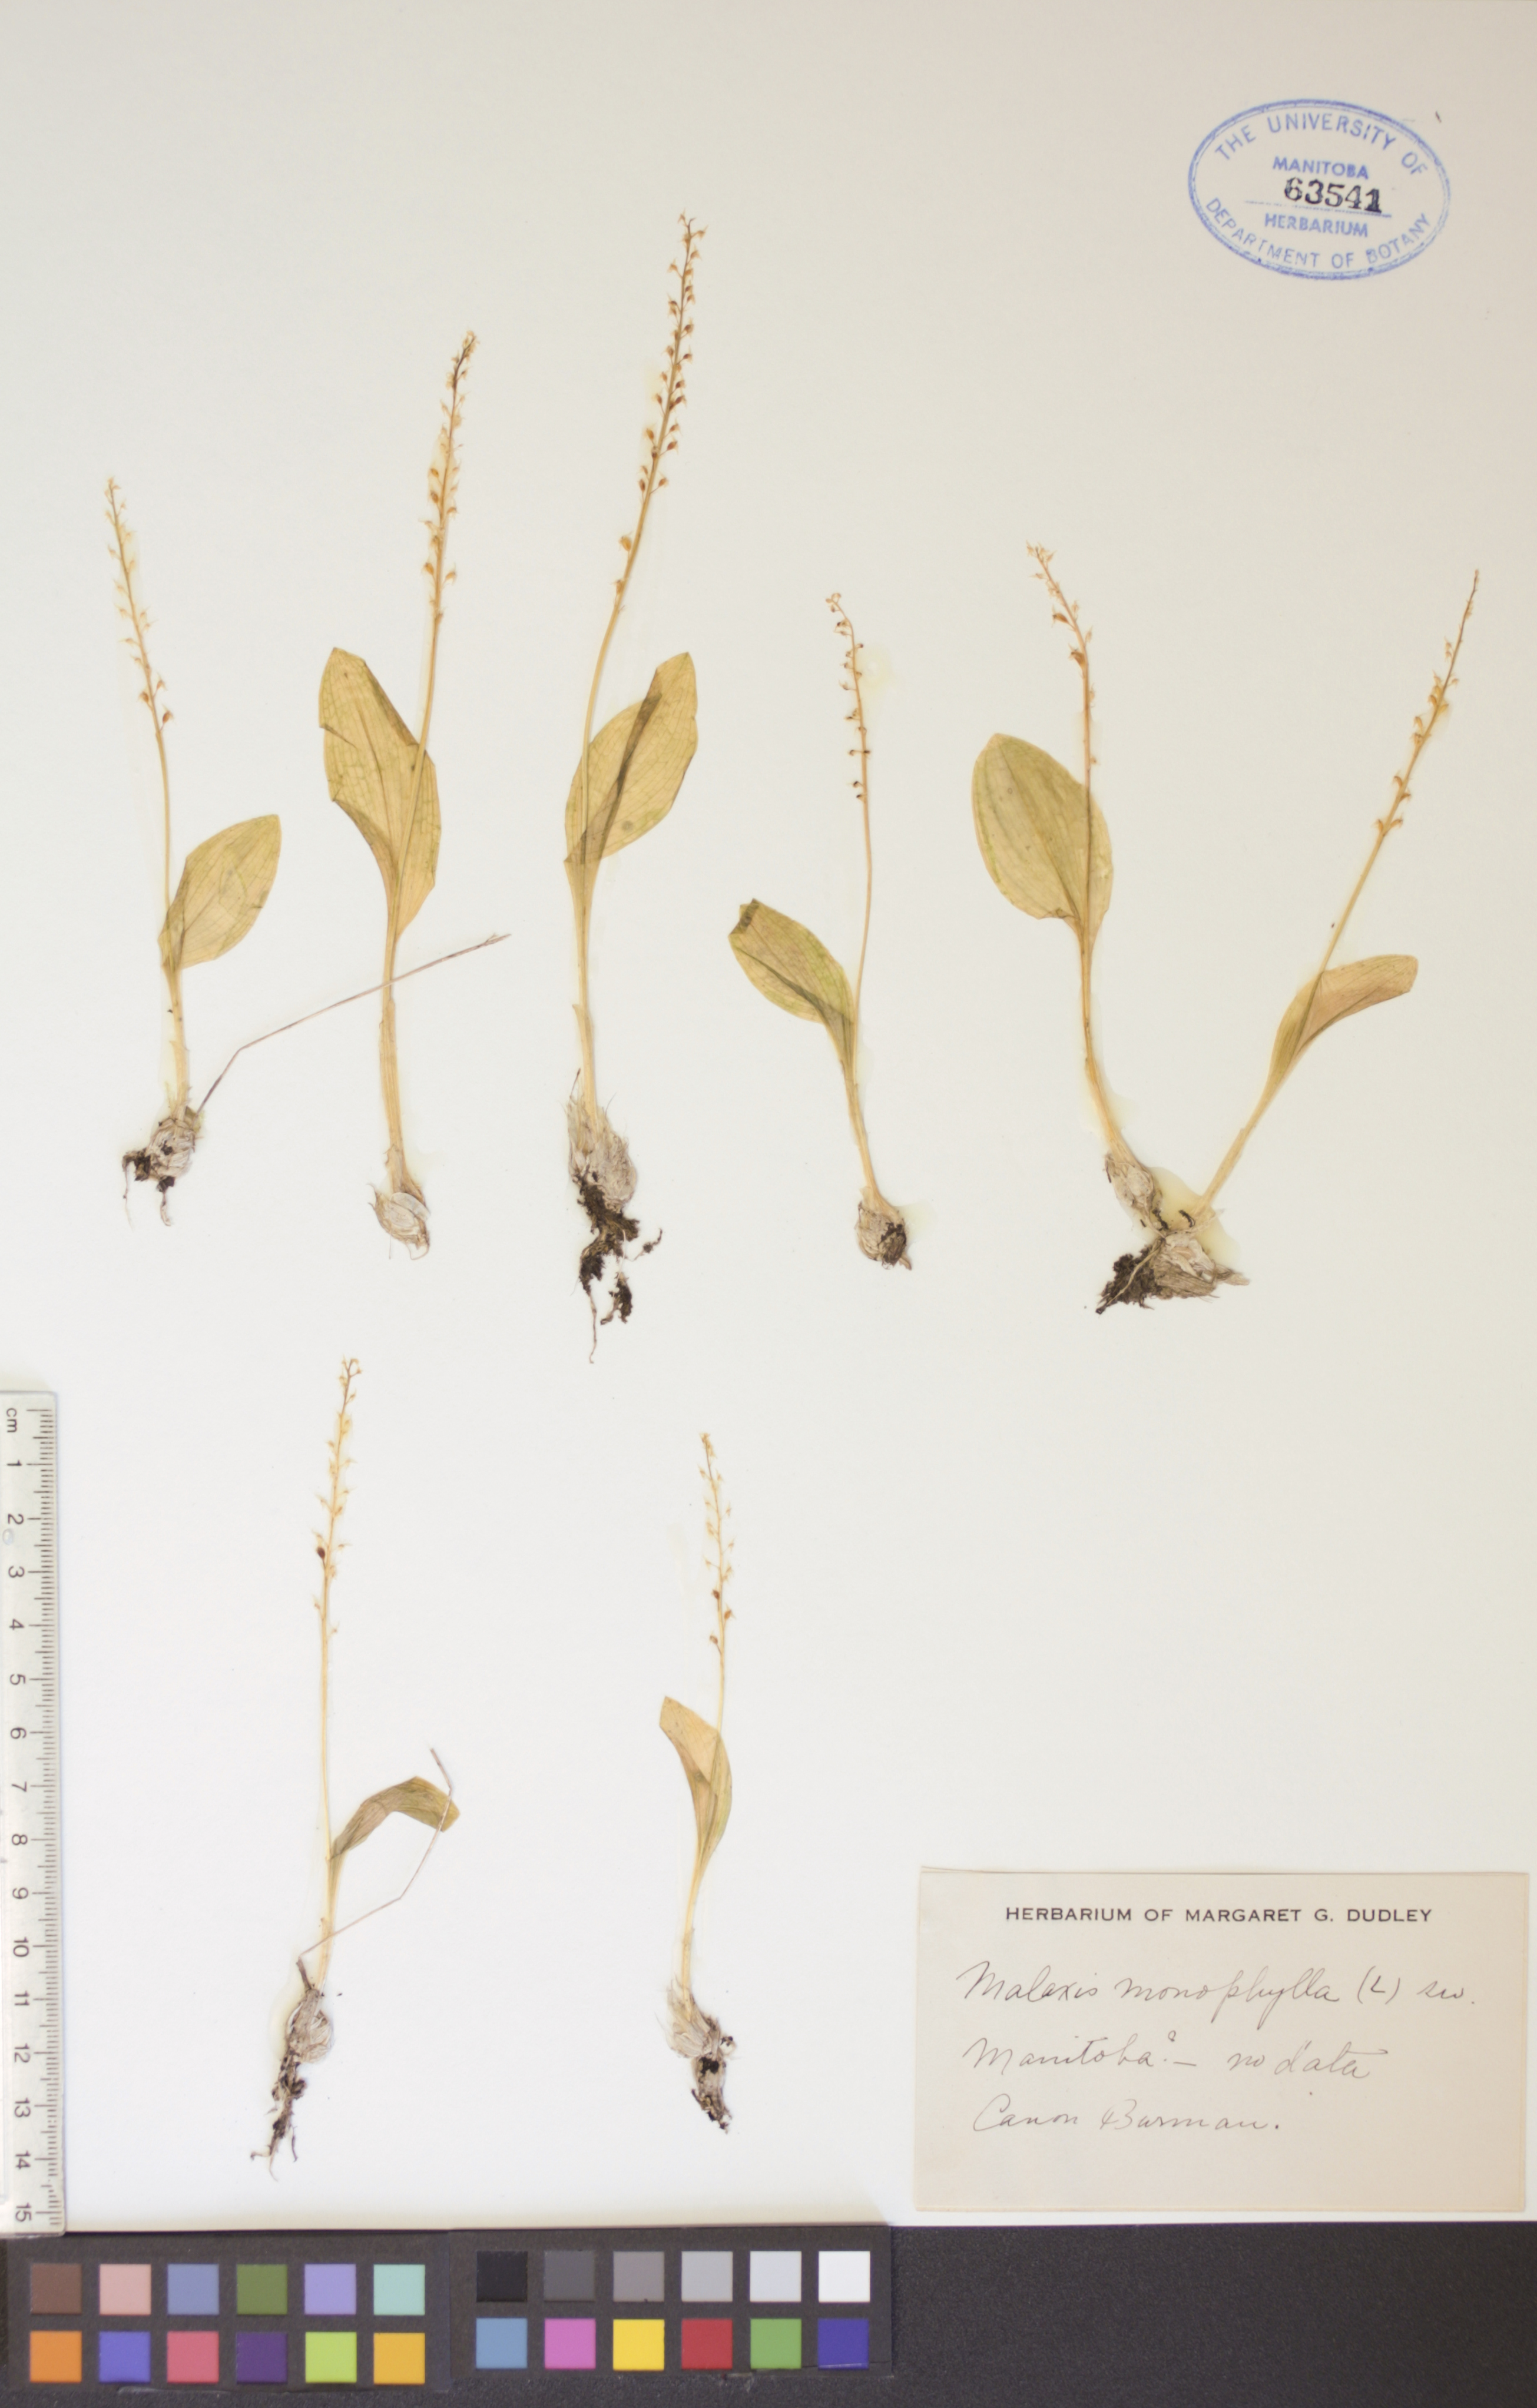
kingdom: Plantae
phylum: Tracheophyta
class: Liliopsida
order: Asparagales
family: Orchidaceae
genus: Malaxis
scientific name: Malaxis monophyllos
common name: White adder's-mouth
